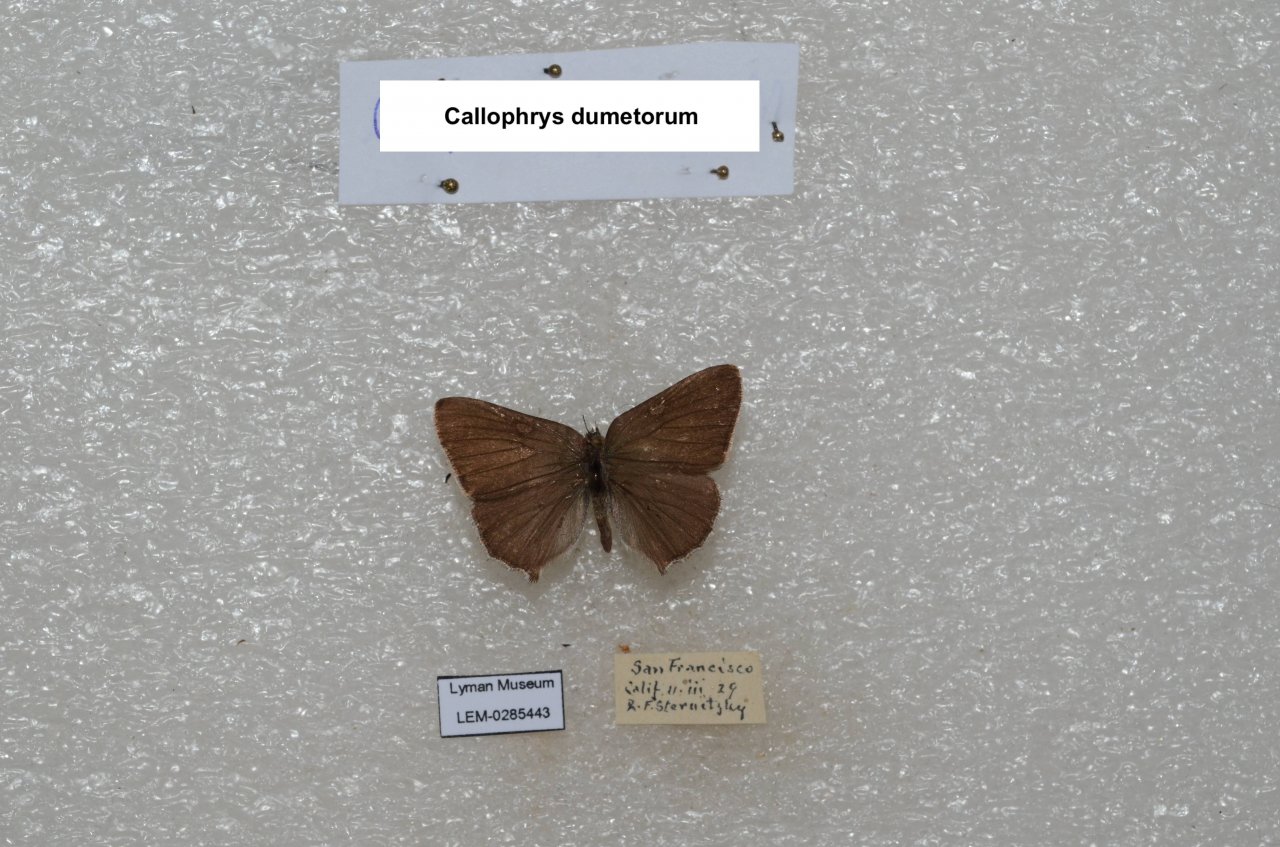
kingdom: Animalia
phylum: Arthropoda
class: Insecta
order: Lepidoptera
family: Lycaenidae
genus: Callophrys
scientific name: Callophrys dumetorum
